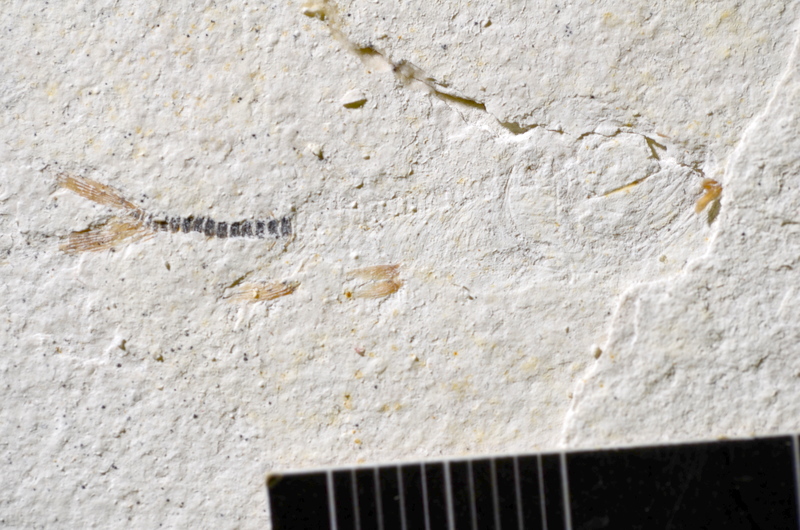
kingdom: Animalia
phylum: Chordata
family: Ascalaboidae
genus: Ebertichthys
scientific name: Ebertichthys ettlingensis
